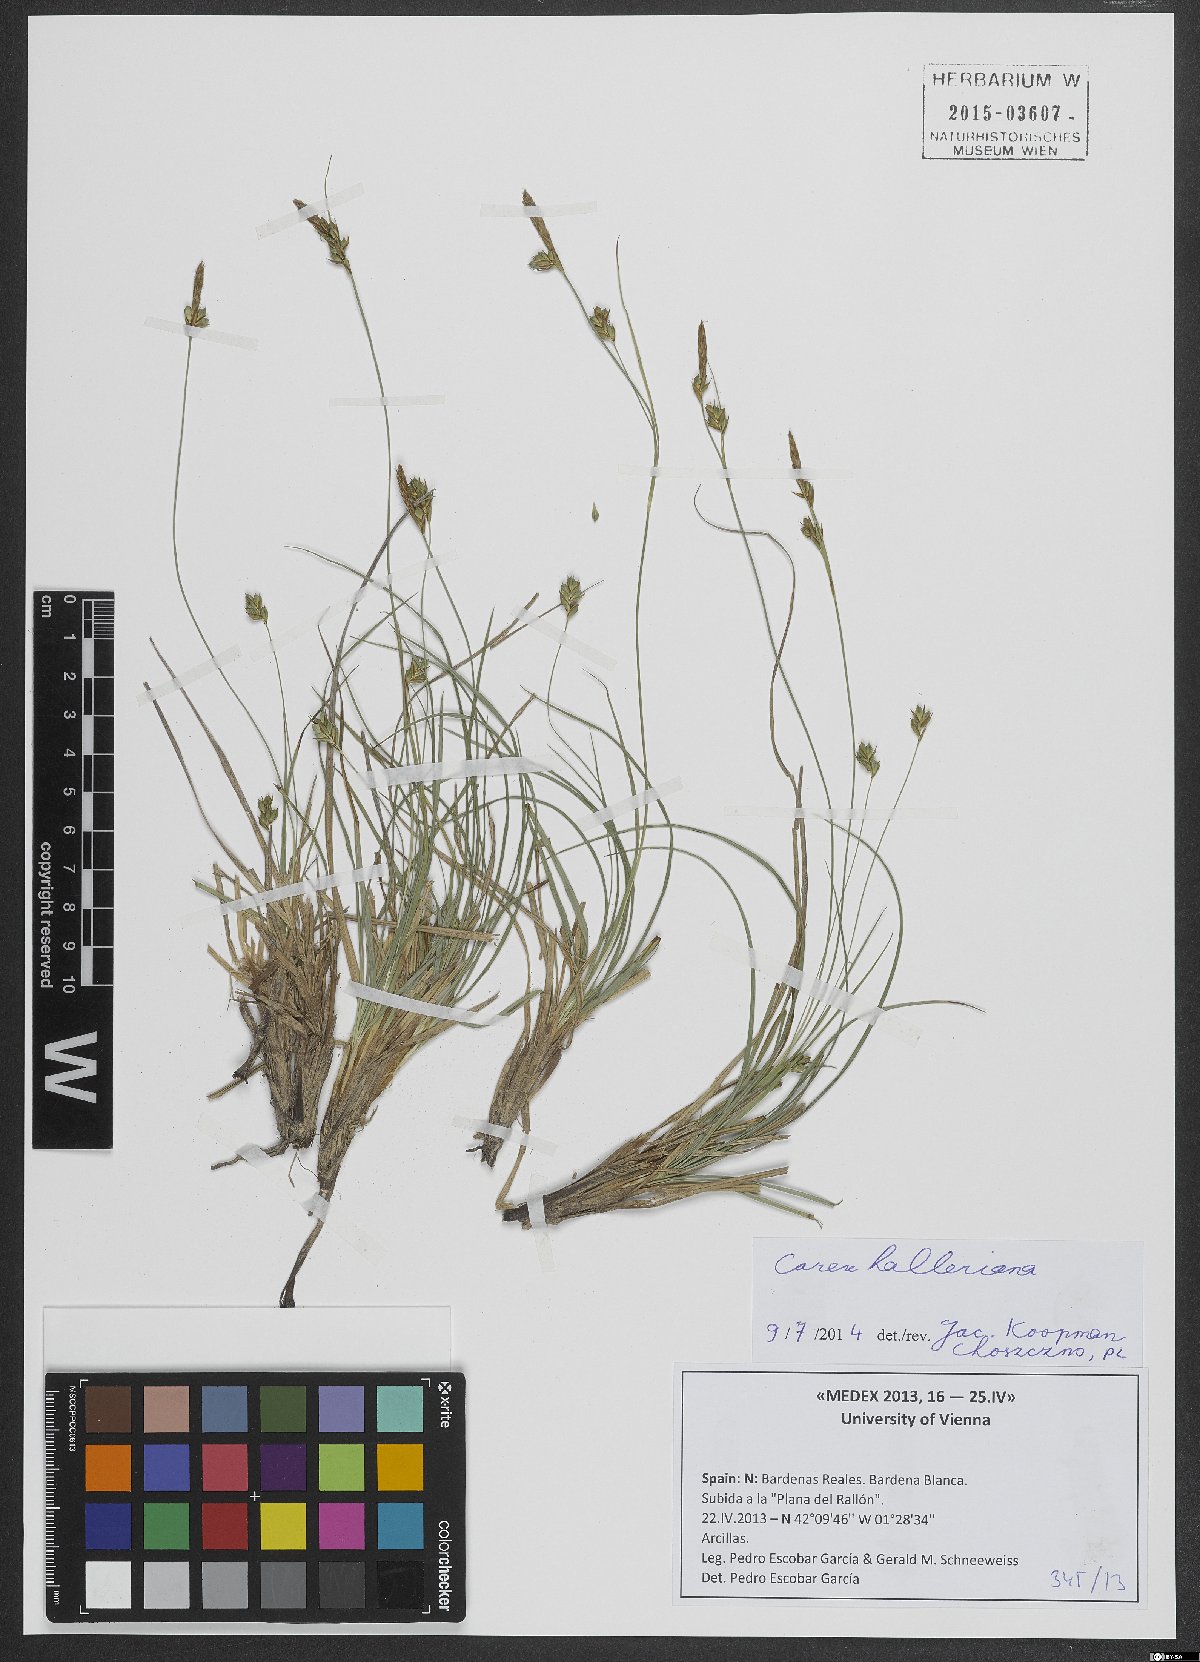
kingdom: Plantae
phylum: Tracheophyta
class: Liliopsida
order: Poales
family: Cyperaceae
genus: Carex
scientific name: Carex halleriana
